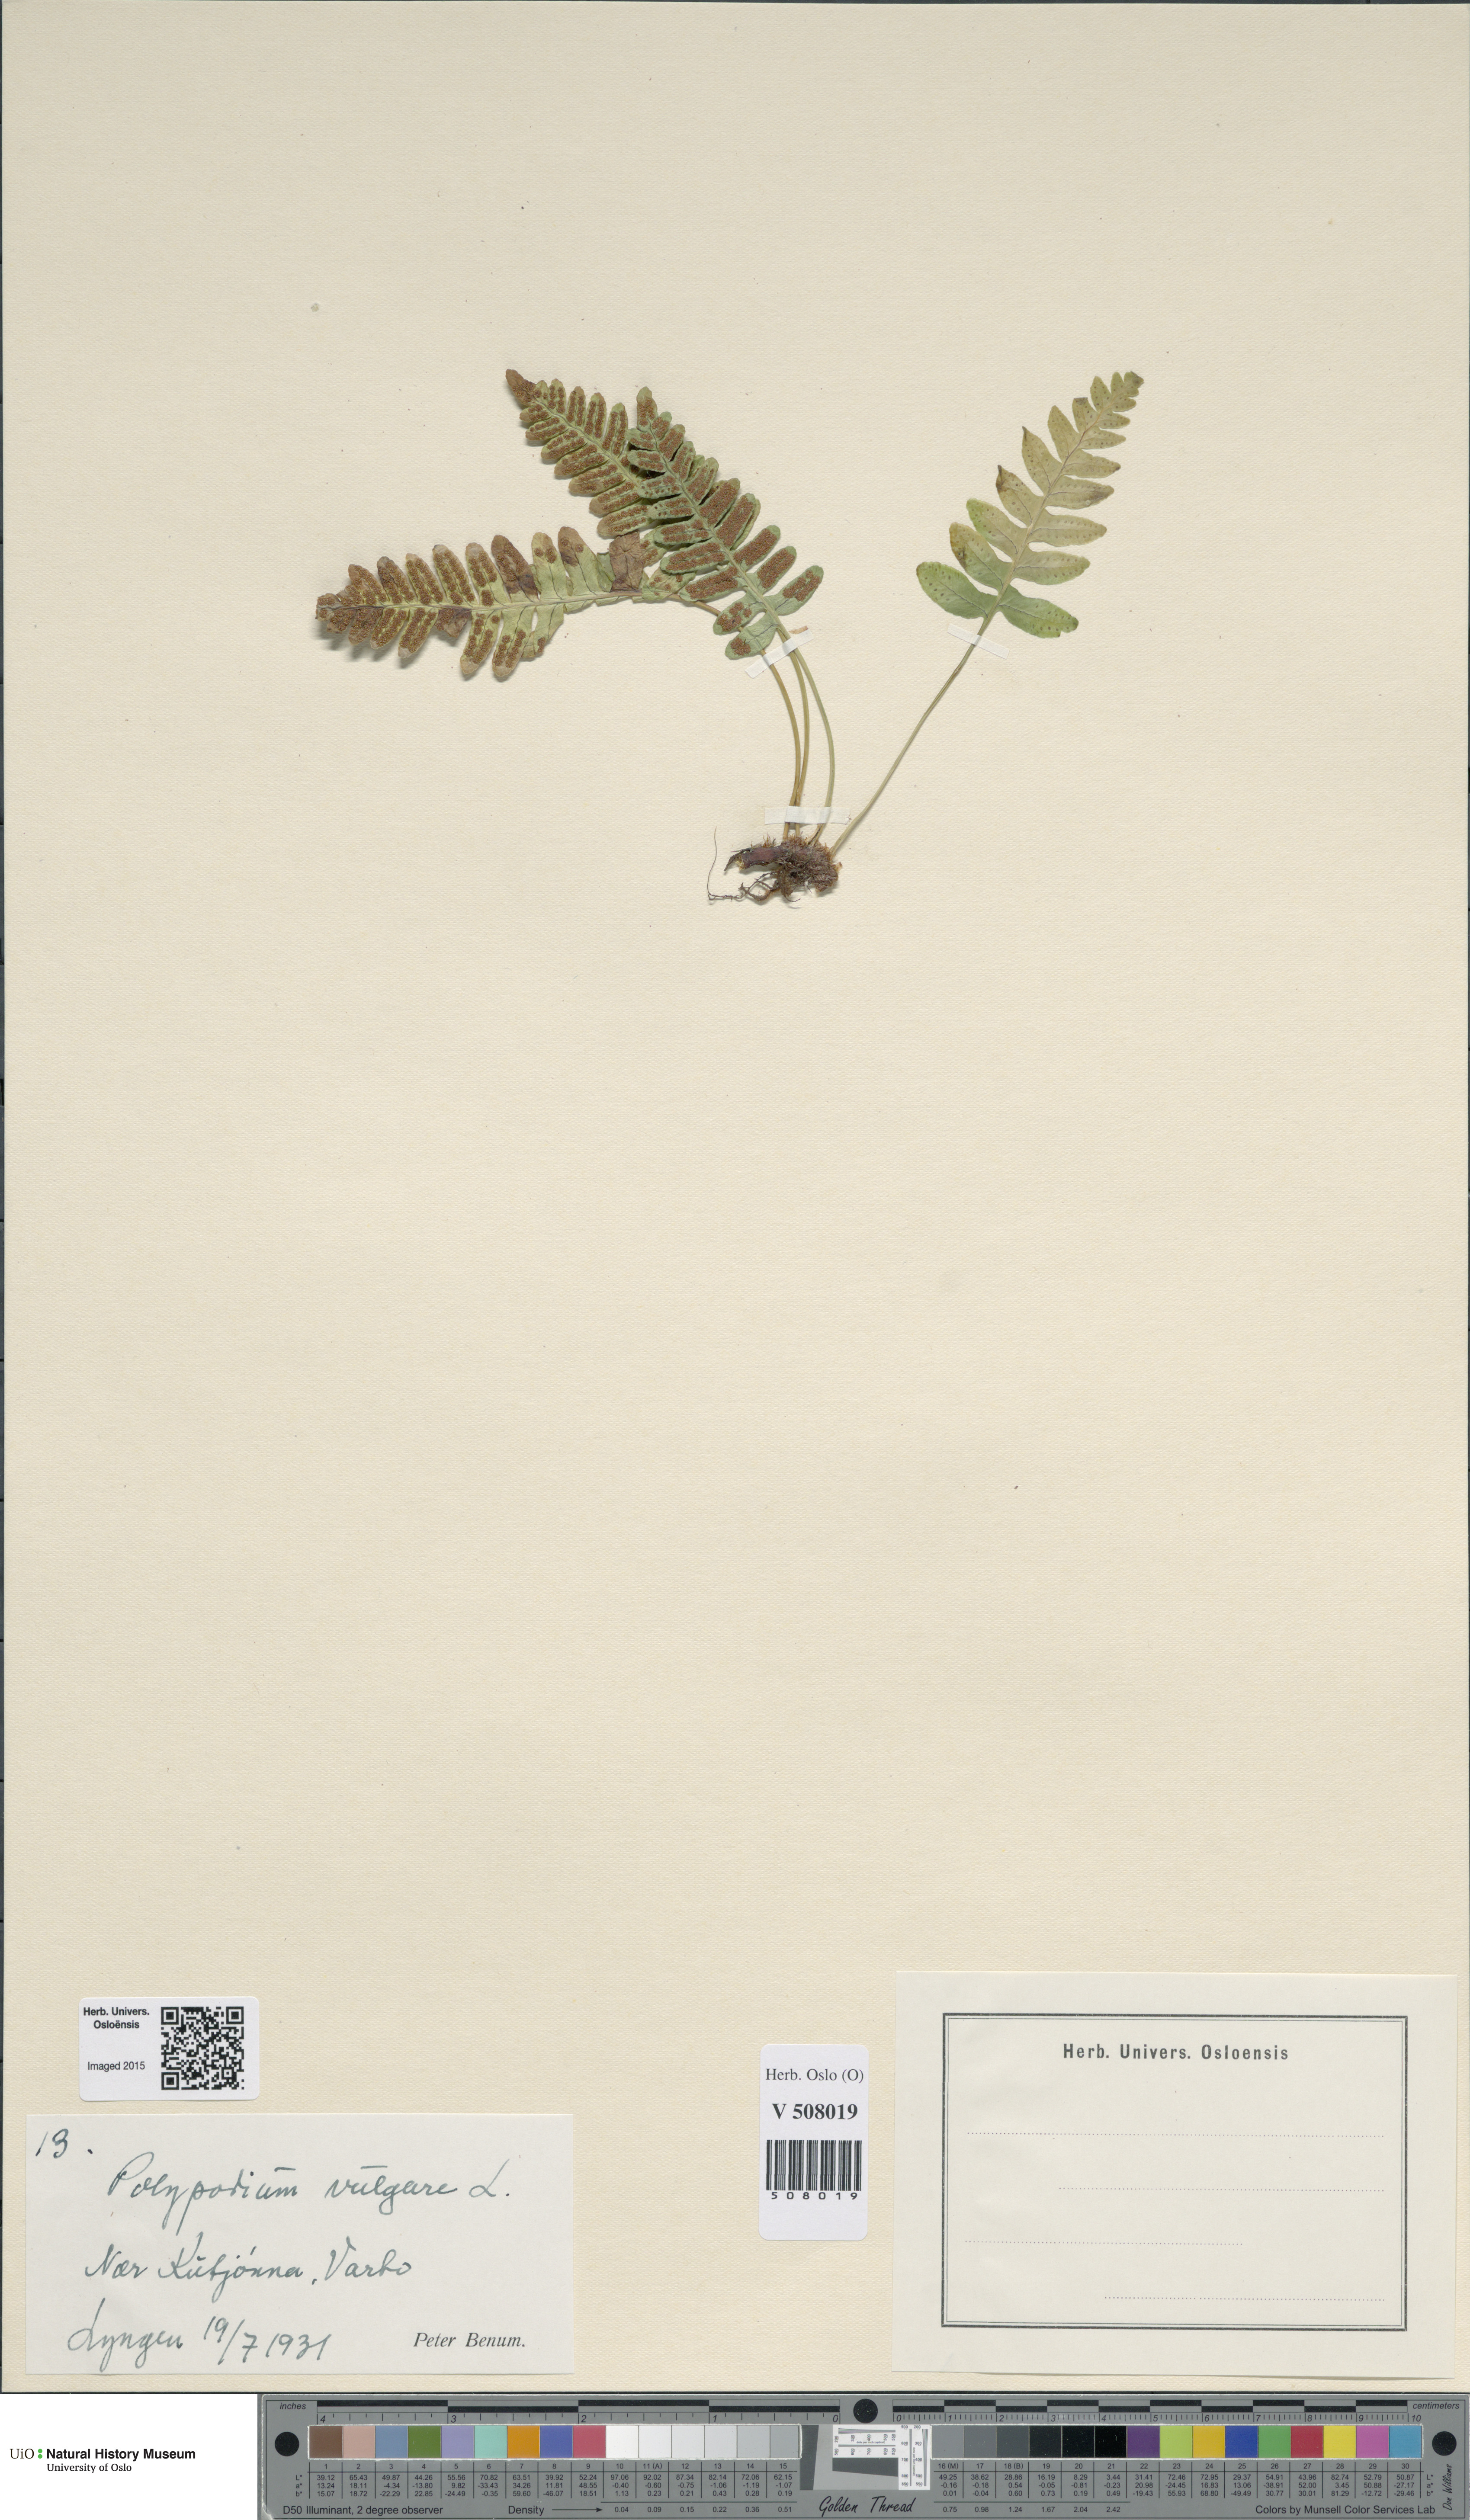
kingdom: Plantae
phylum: Tracheophyta
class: Polypodiopsida
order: Polypodiales
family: Polypodiaceae
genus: Polypodium
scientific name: Polypodium vulgare
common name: Common polypody
